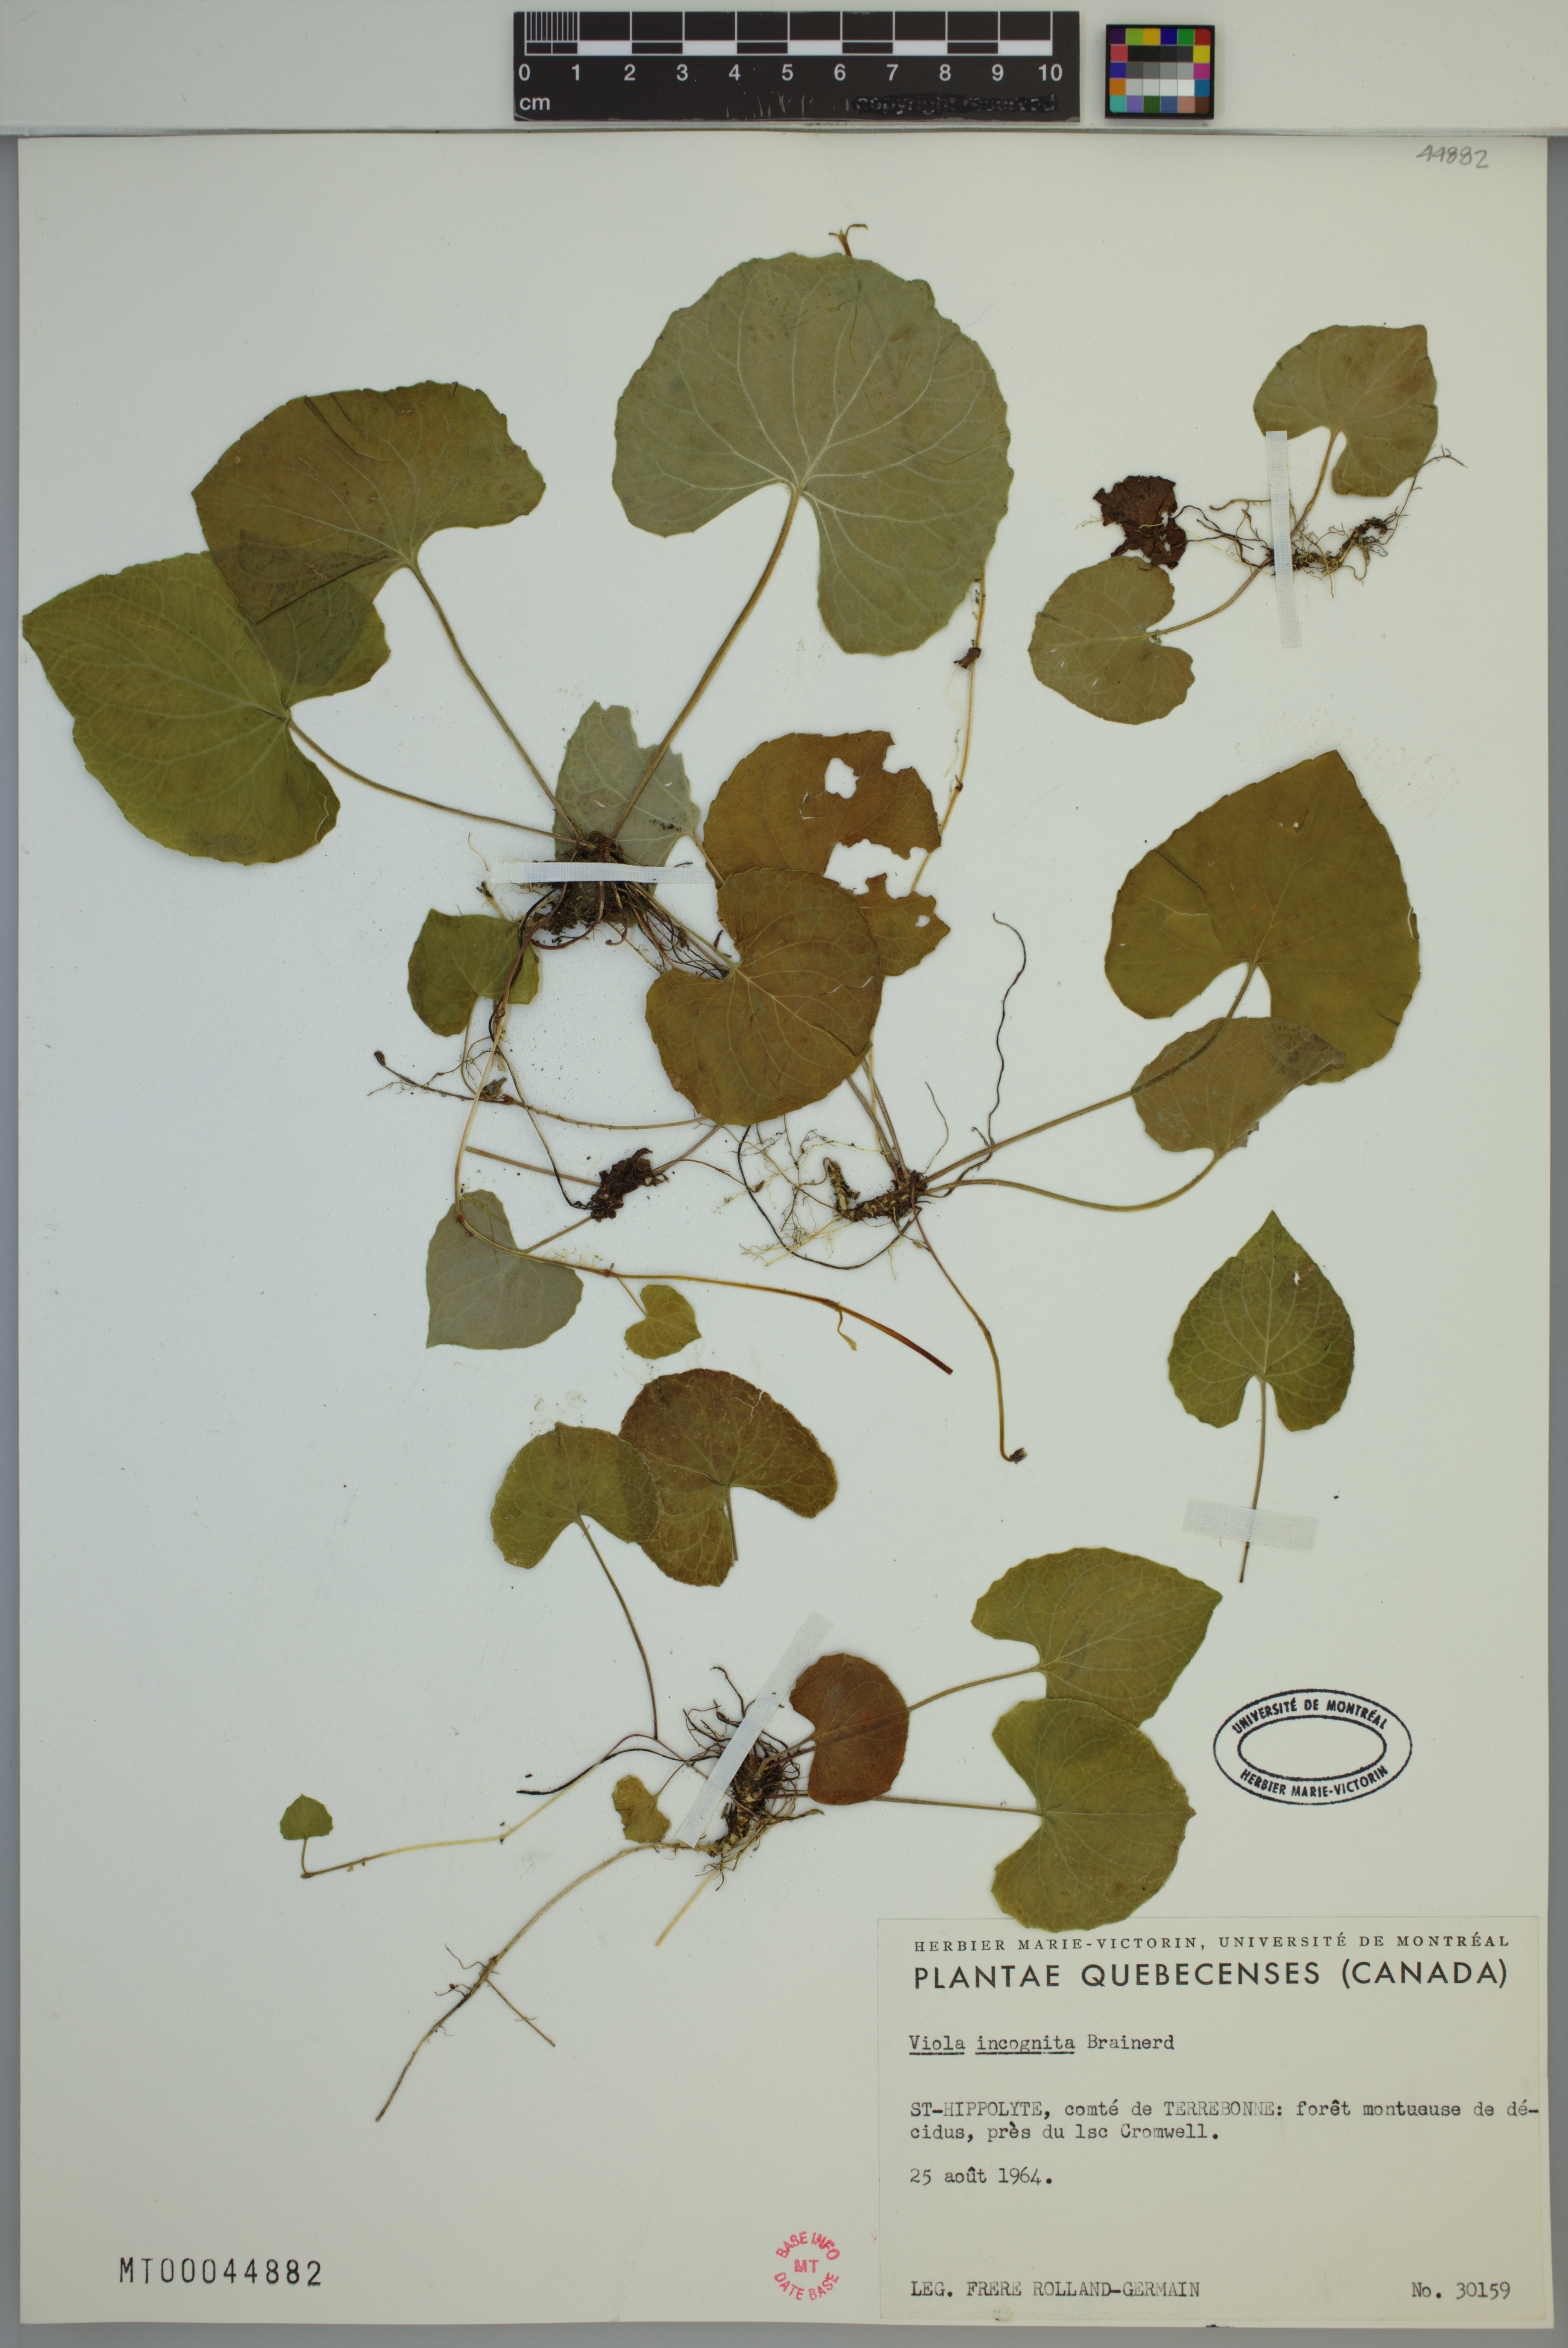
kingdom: Plantae
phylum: Tracheophyta
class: Magnoliopsida
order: Malpighiales
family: Violaceae
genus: Viola
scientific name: Viola blanda
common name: Sweet white violet
